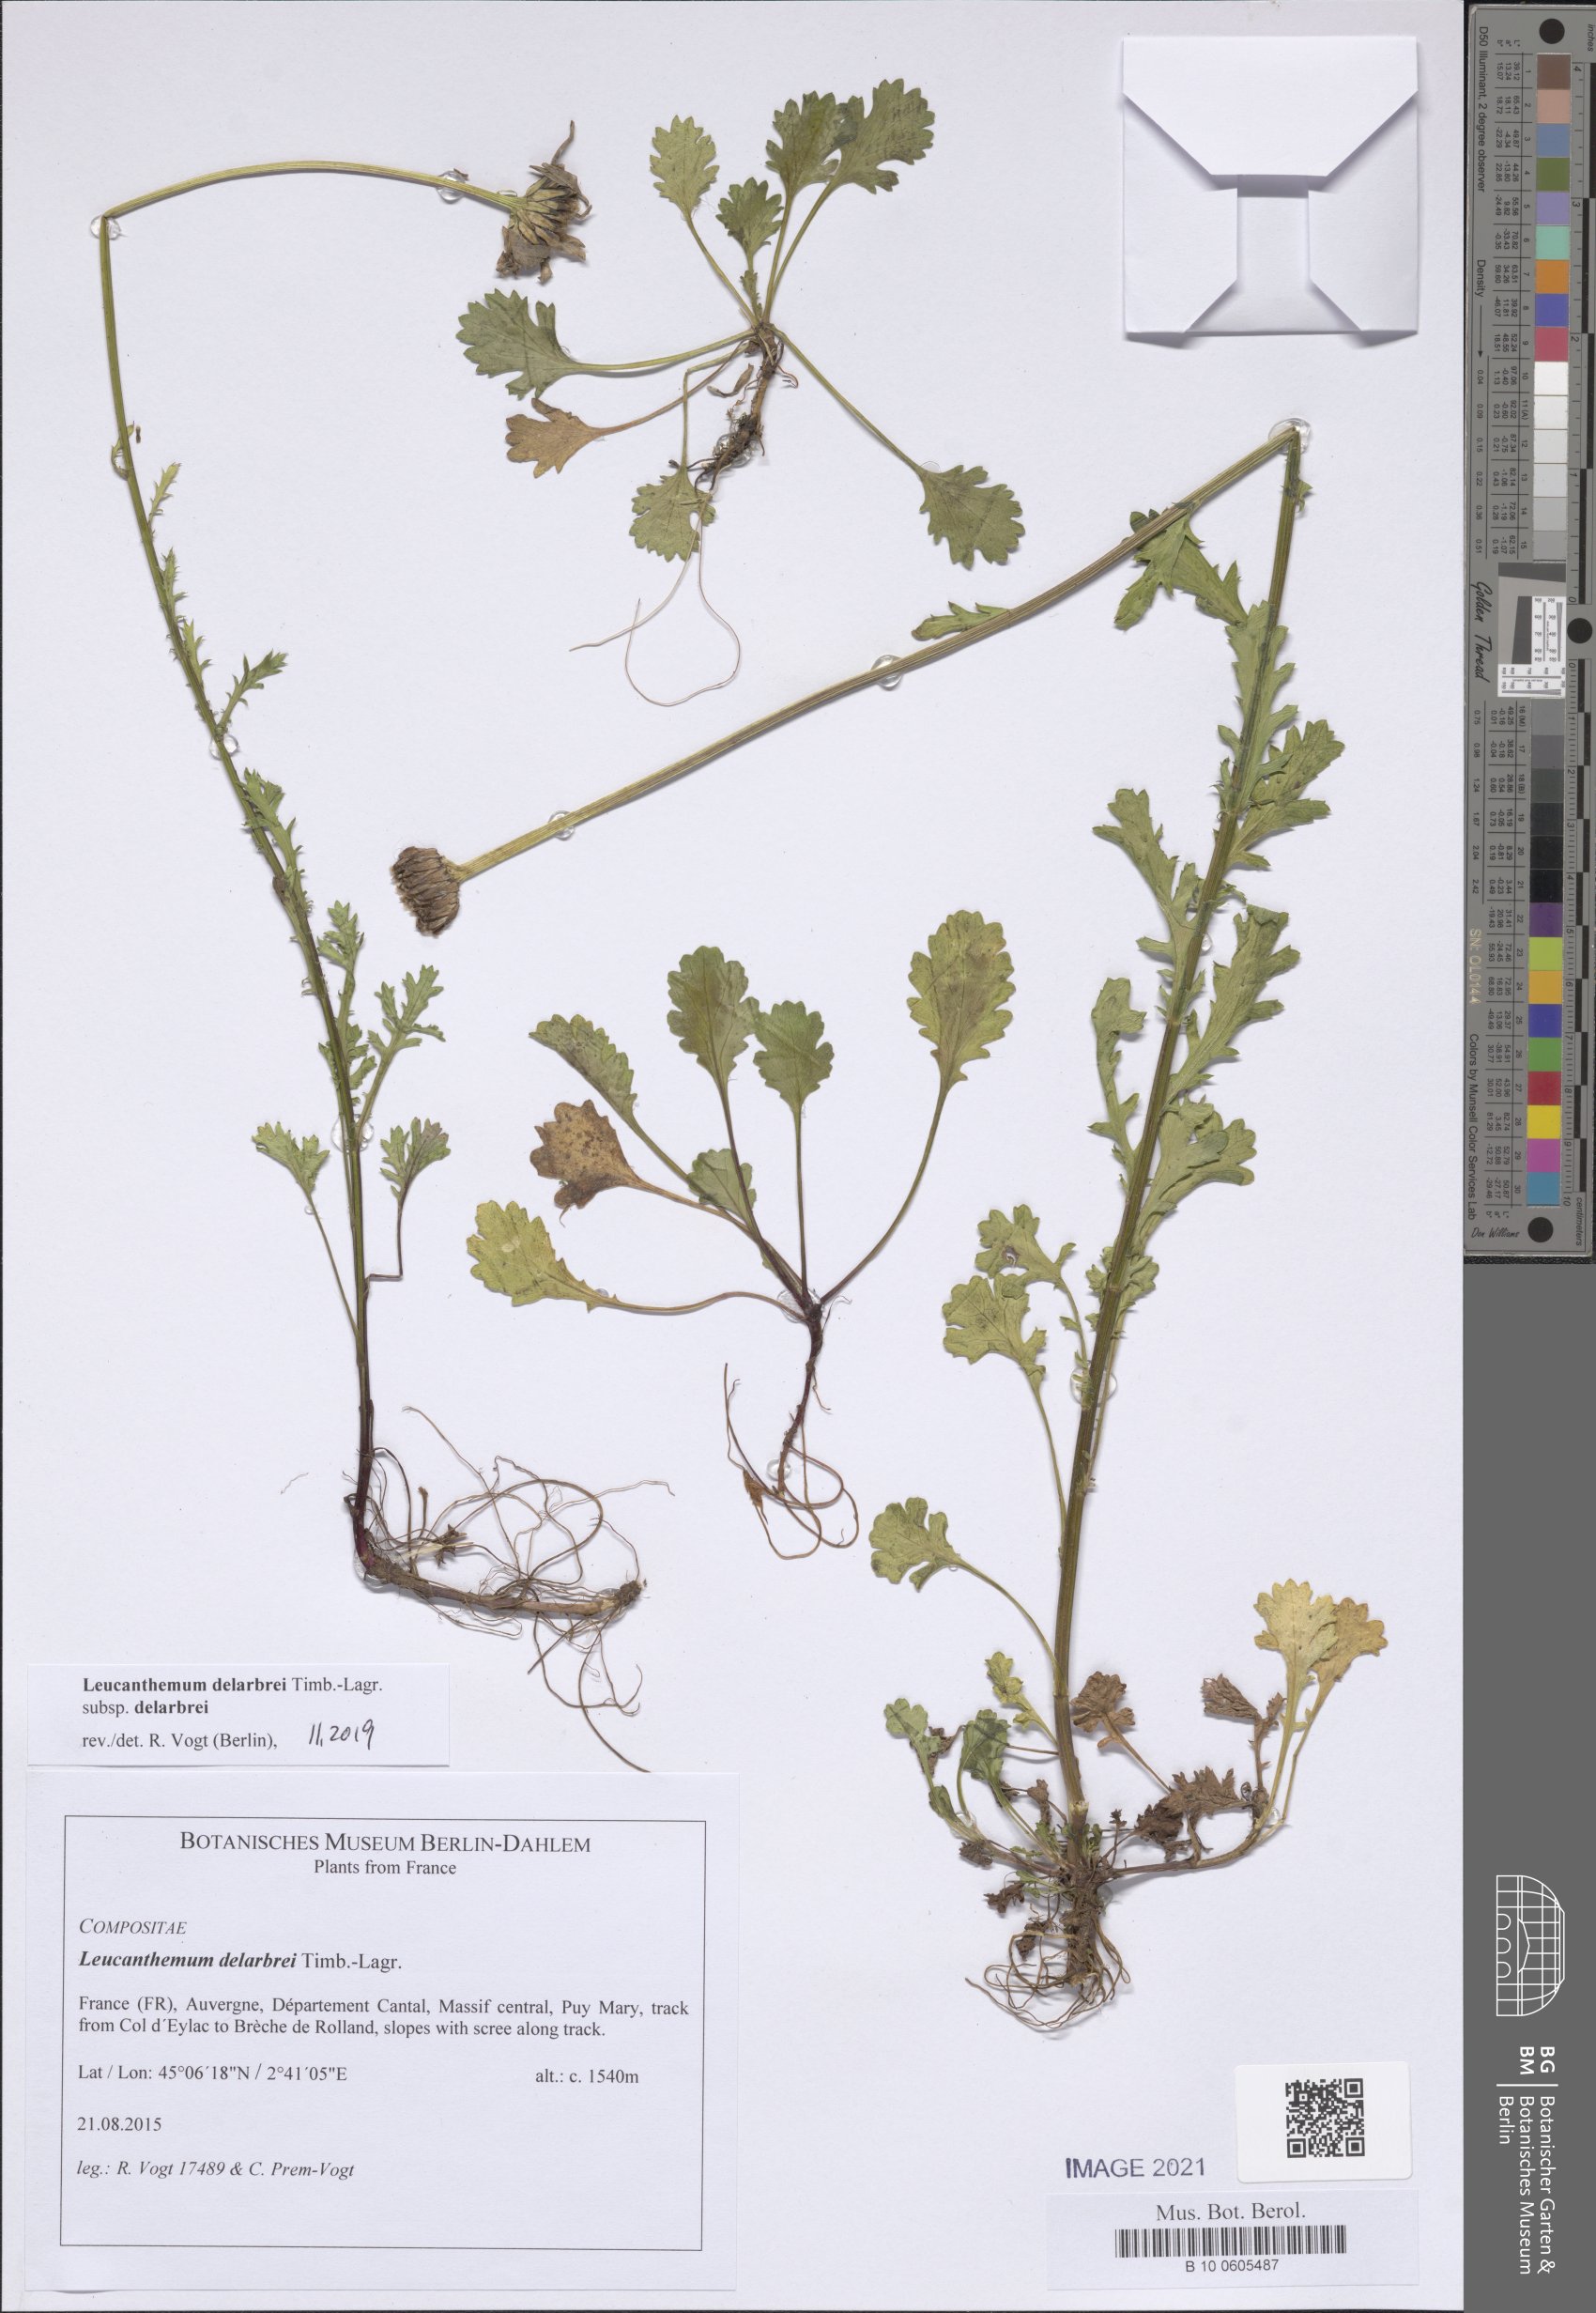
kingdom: Plantae
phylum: Tracheophyta
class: Magnoliopsida
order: Asterales
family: Asteraceae
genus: Leucanthemum
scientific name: Leucanthemum delarbrei
